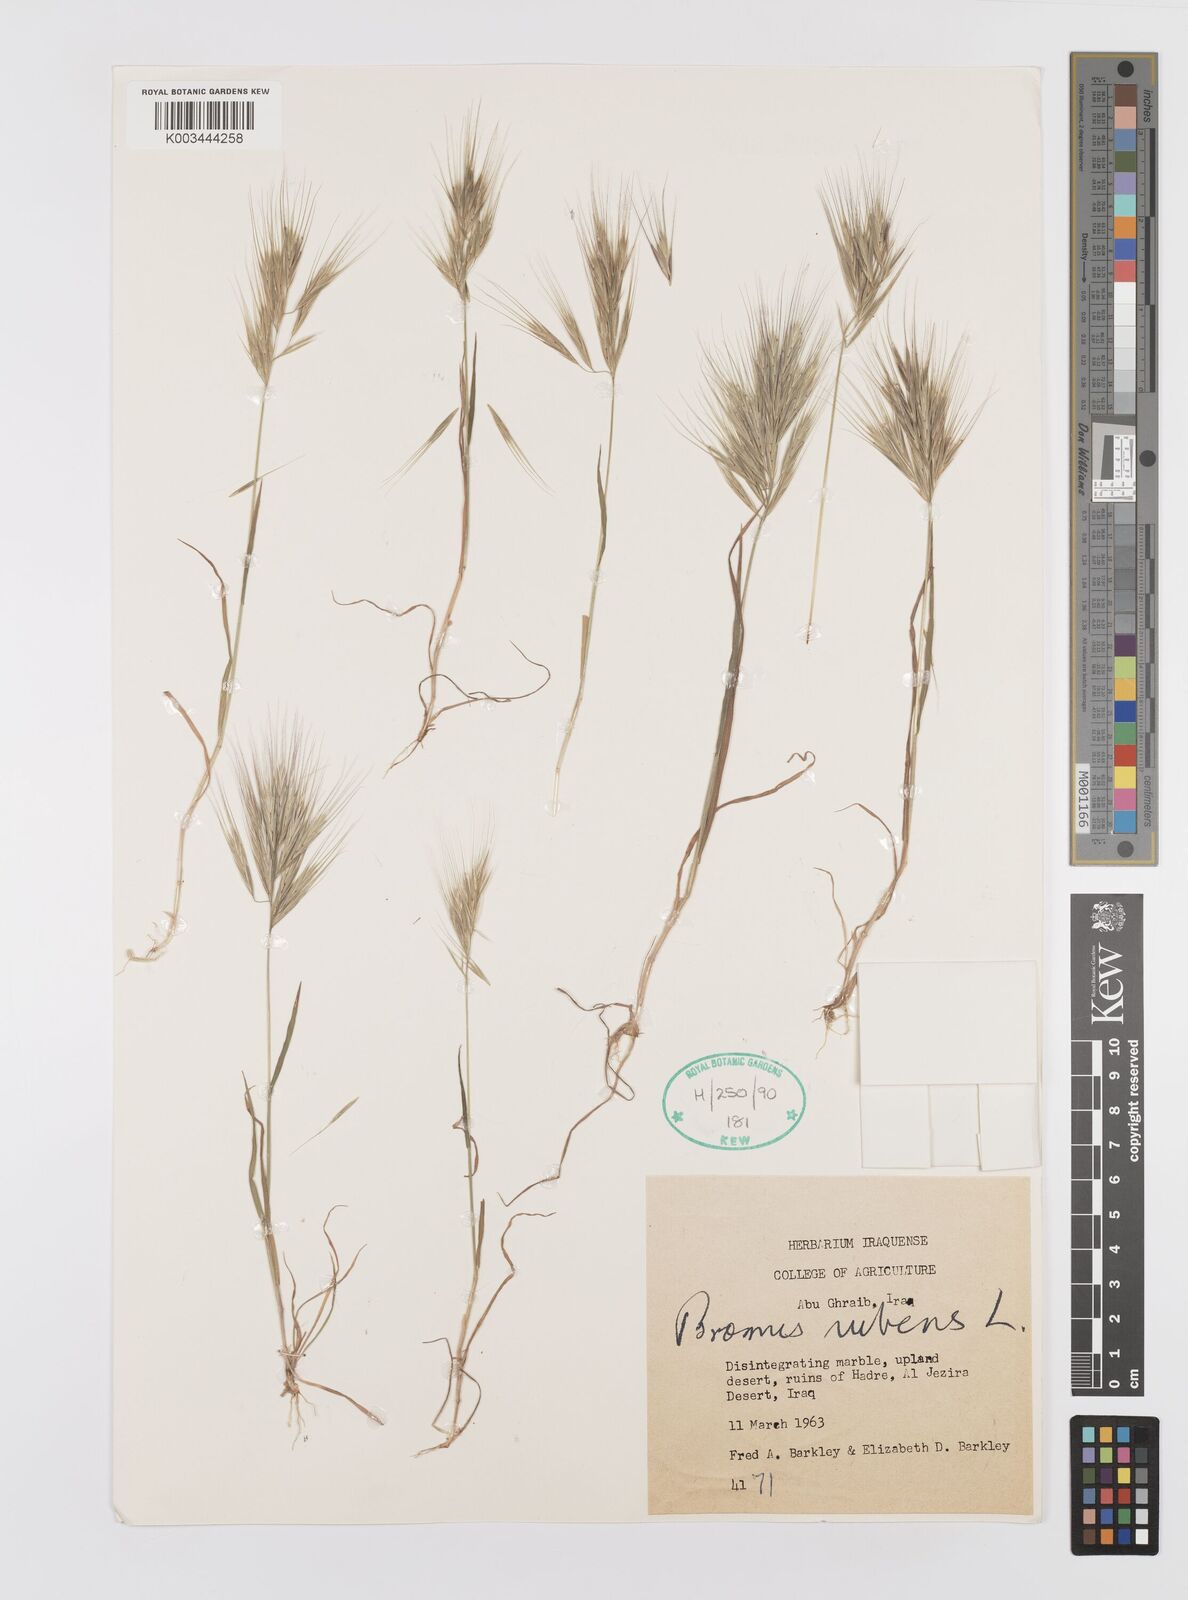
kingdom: Plantae
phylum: Tracheophyta
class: Liliopsida
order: Poales
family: Poaceae
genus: Bromus
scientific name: Bromus madritensis
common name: Compact brome
